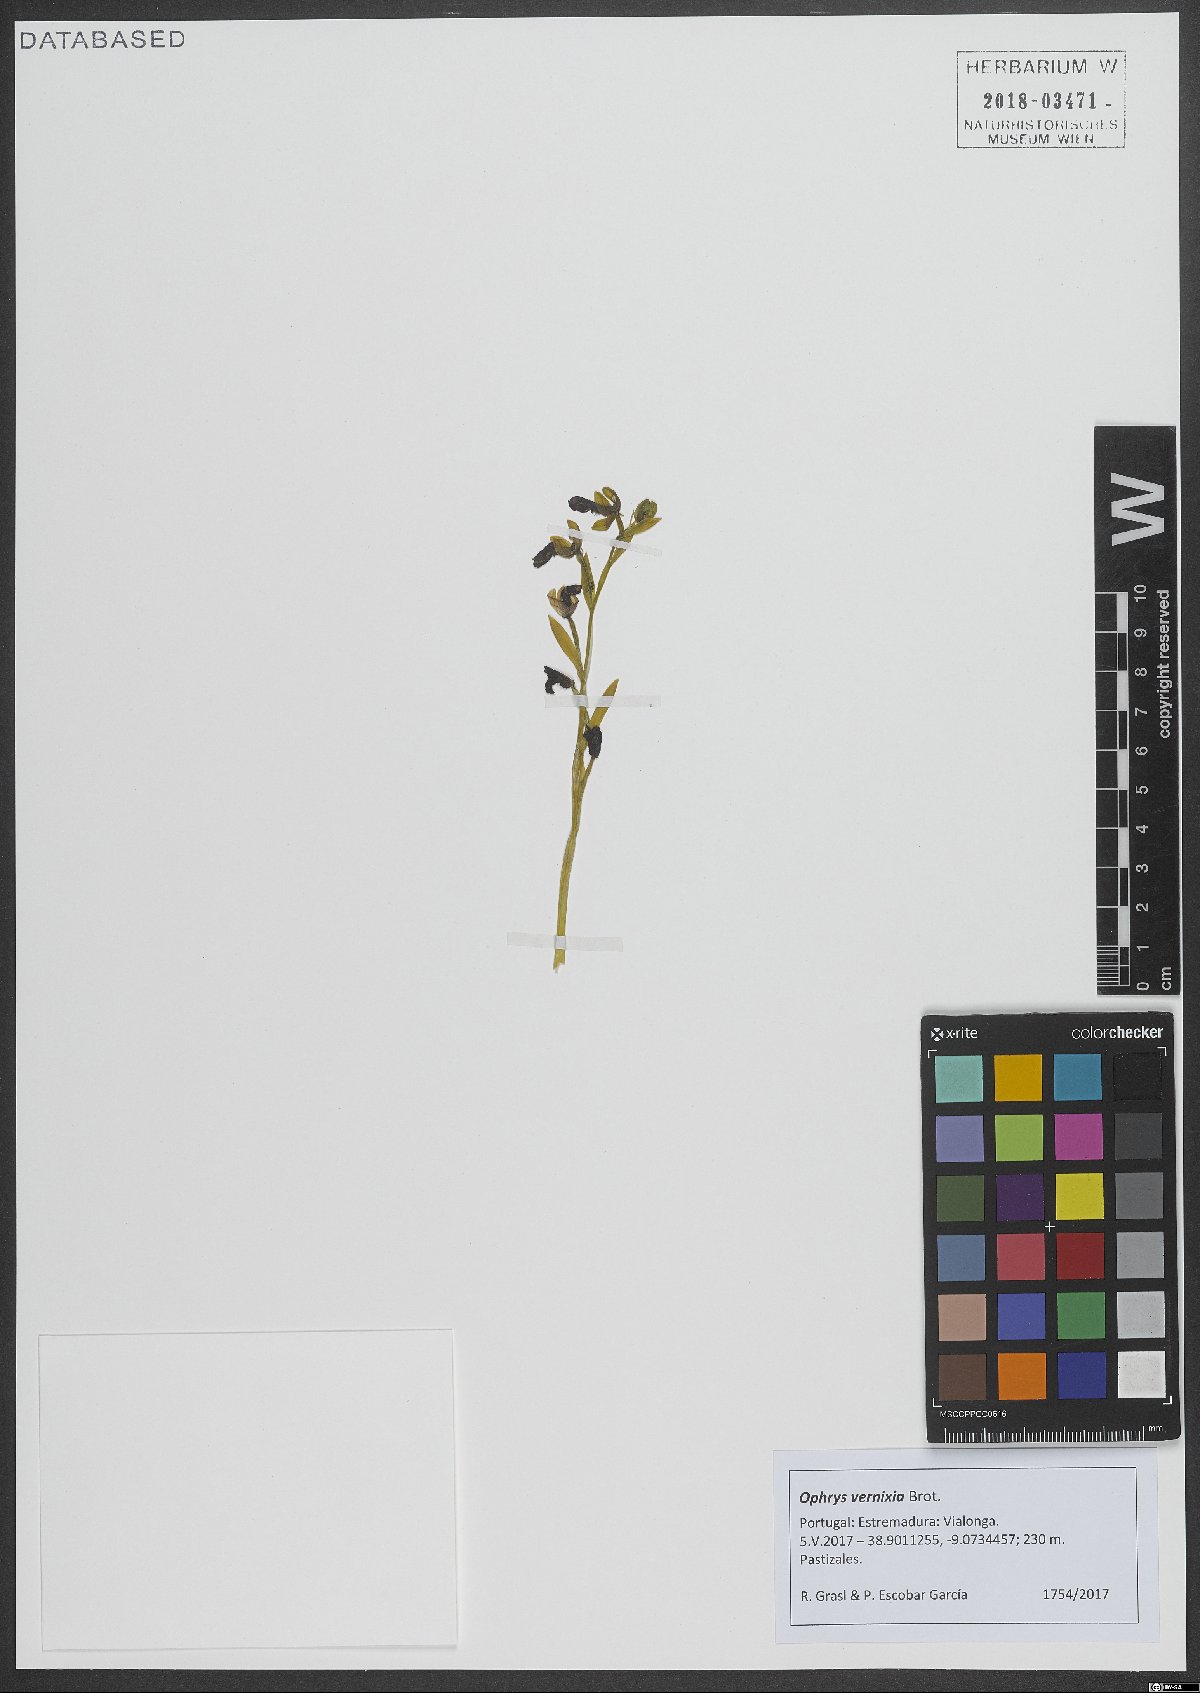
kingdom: Plantae
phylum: Tracheophyta
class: Liliopsida
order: Asparagales
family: Orchidaceae
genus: Ophrys
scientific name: Ophrys speculum
